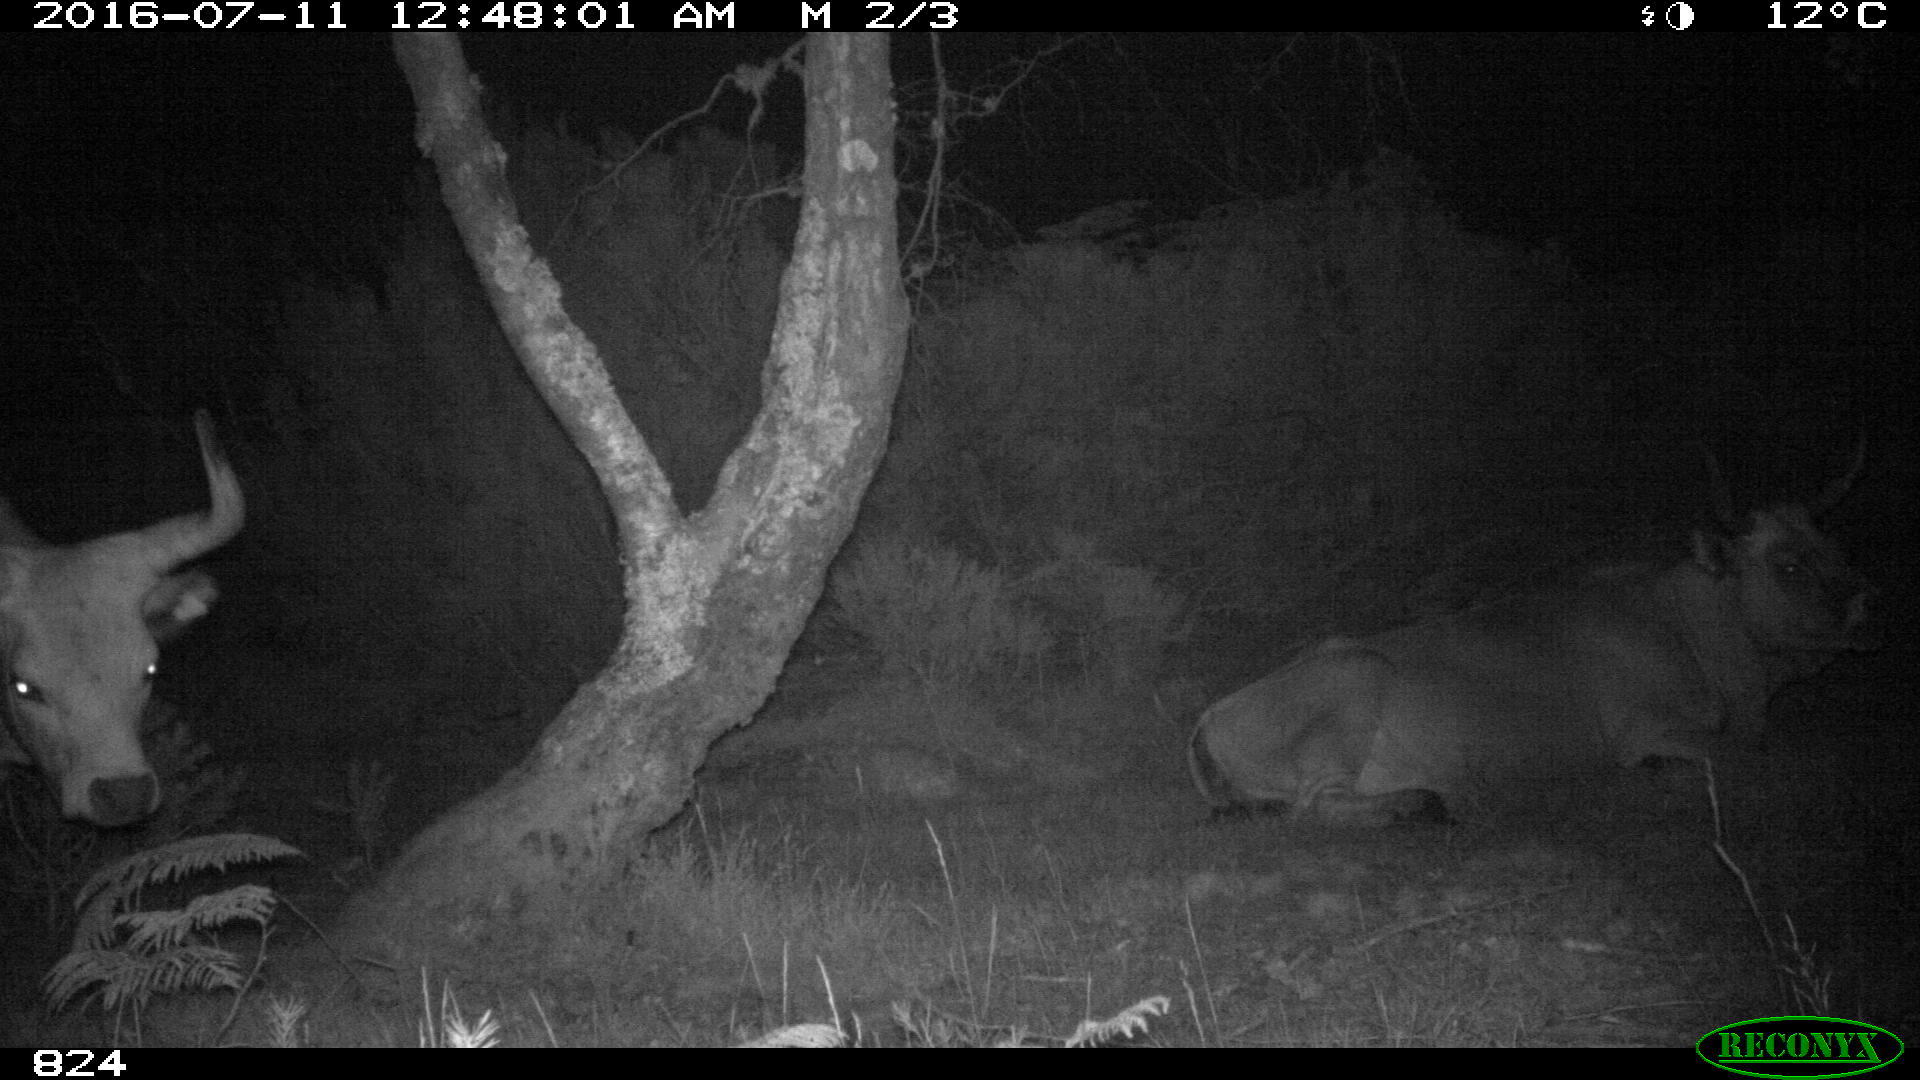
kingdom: Animalia
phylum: Chordata
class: Mammalia
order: Artiodactyla
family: Bovidae
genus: Bos
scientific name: Bos taurus
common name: Domesticated cattle
